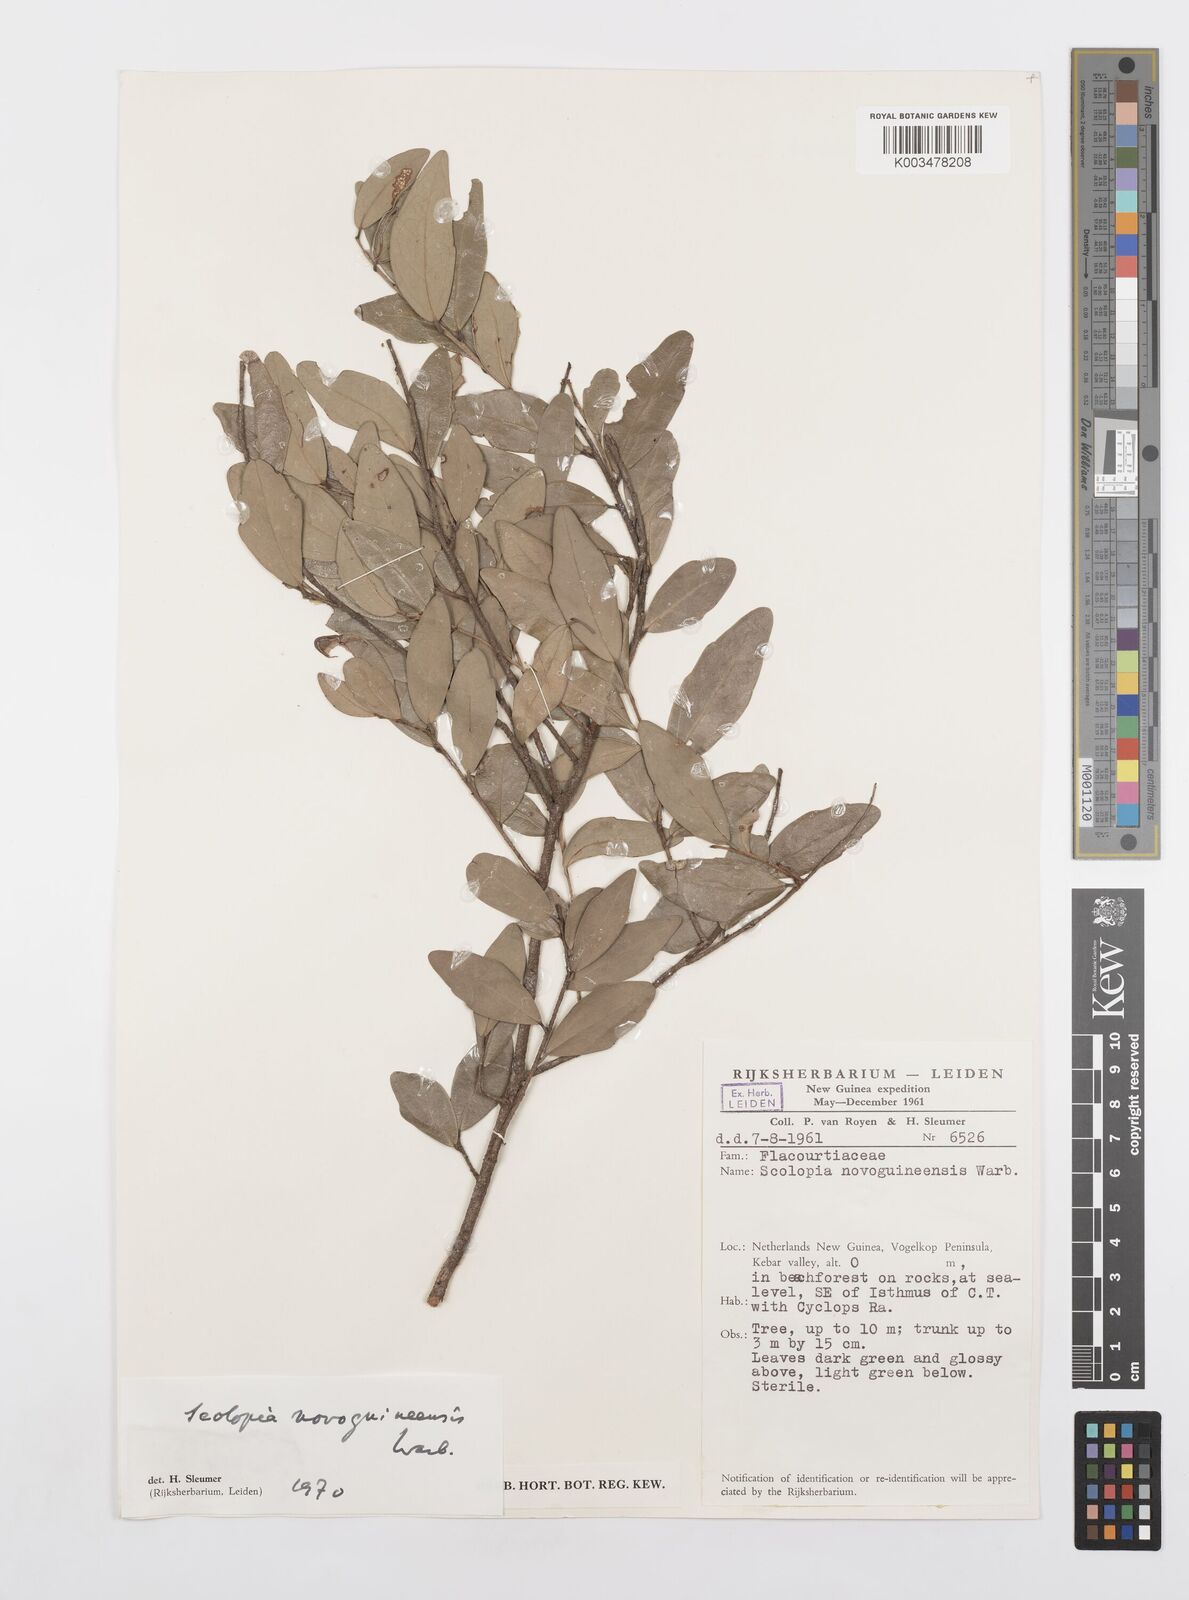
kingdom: Plantae
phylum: Tracheophyta
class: Magnoliopsida
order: Malpighiales
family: Salicaceae
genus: Scolopia
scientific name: Scolopia nitida
